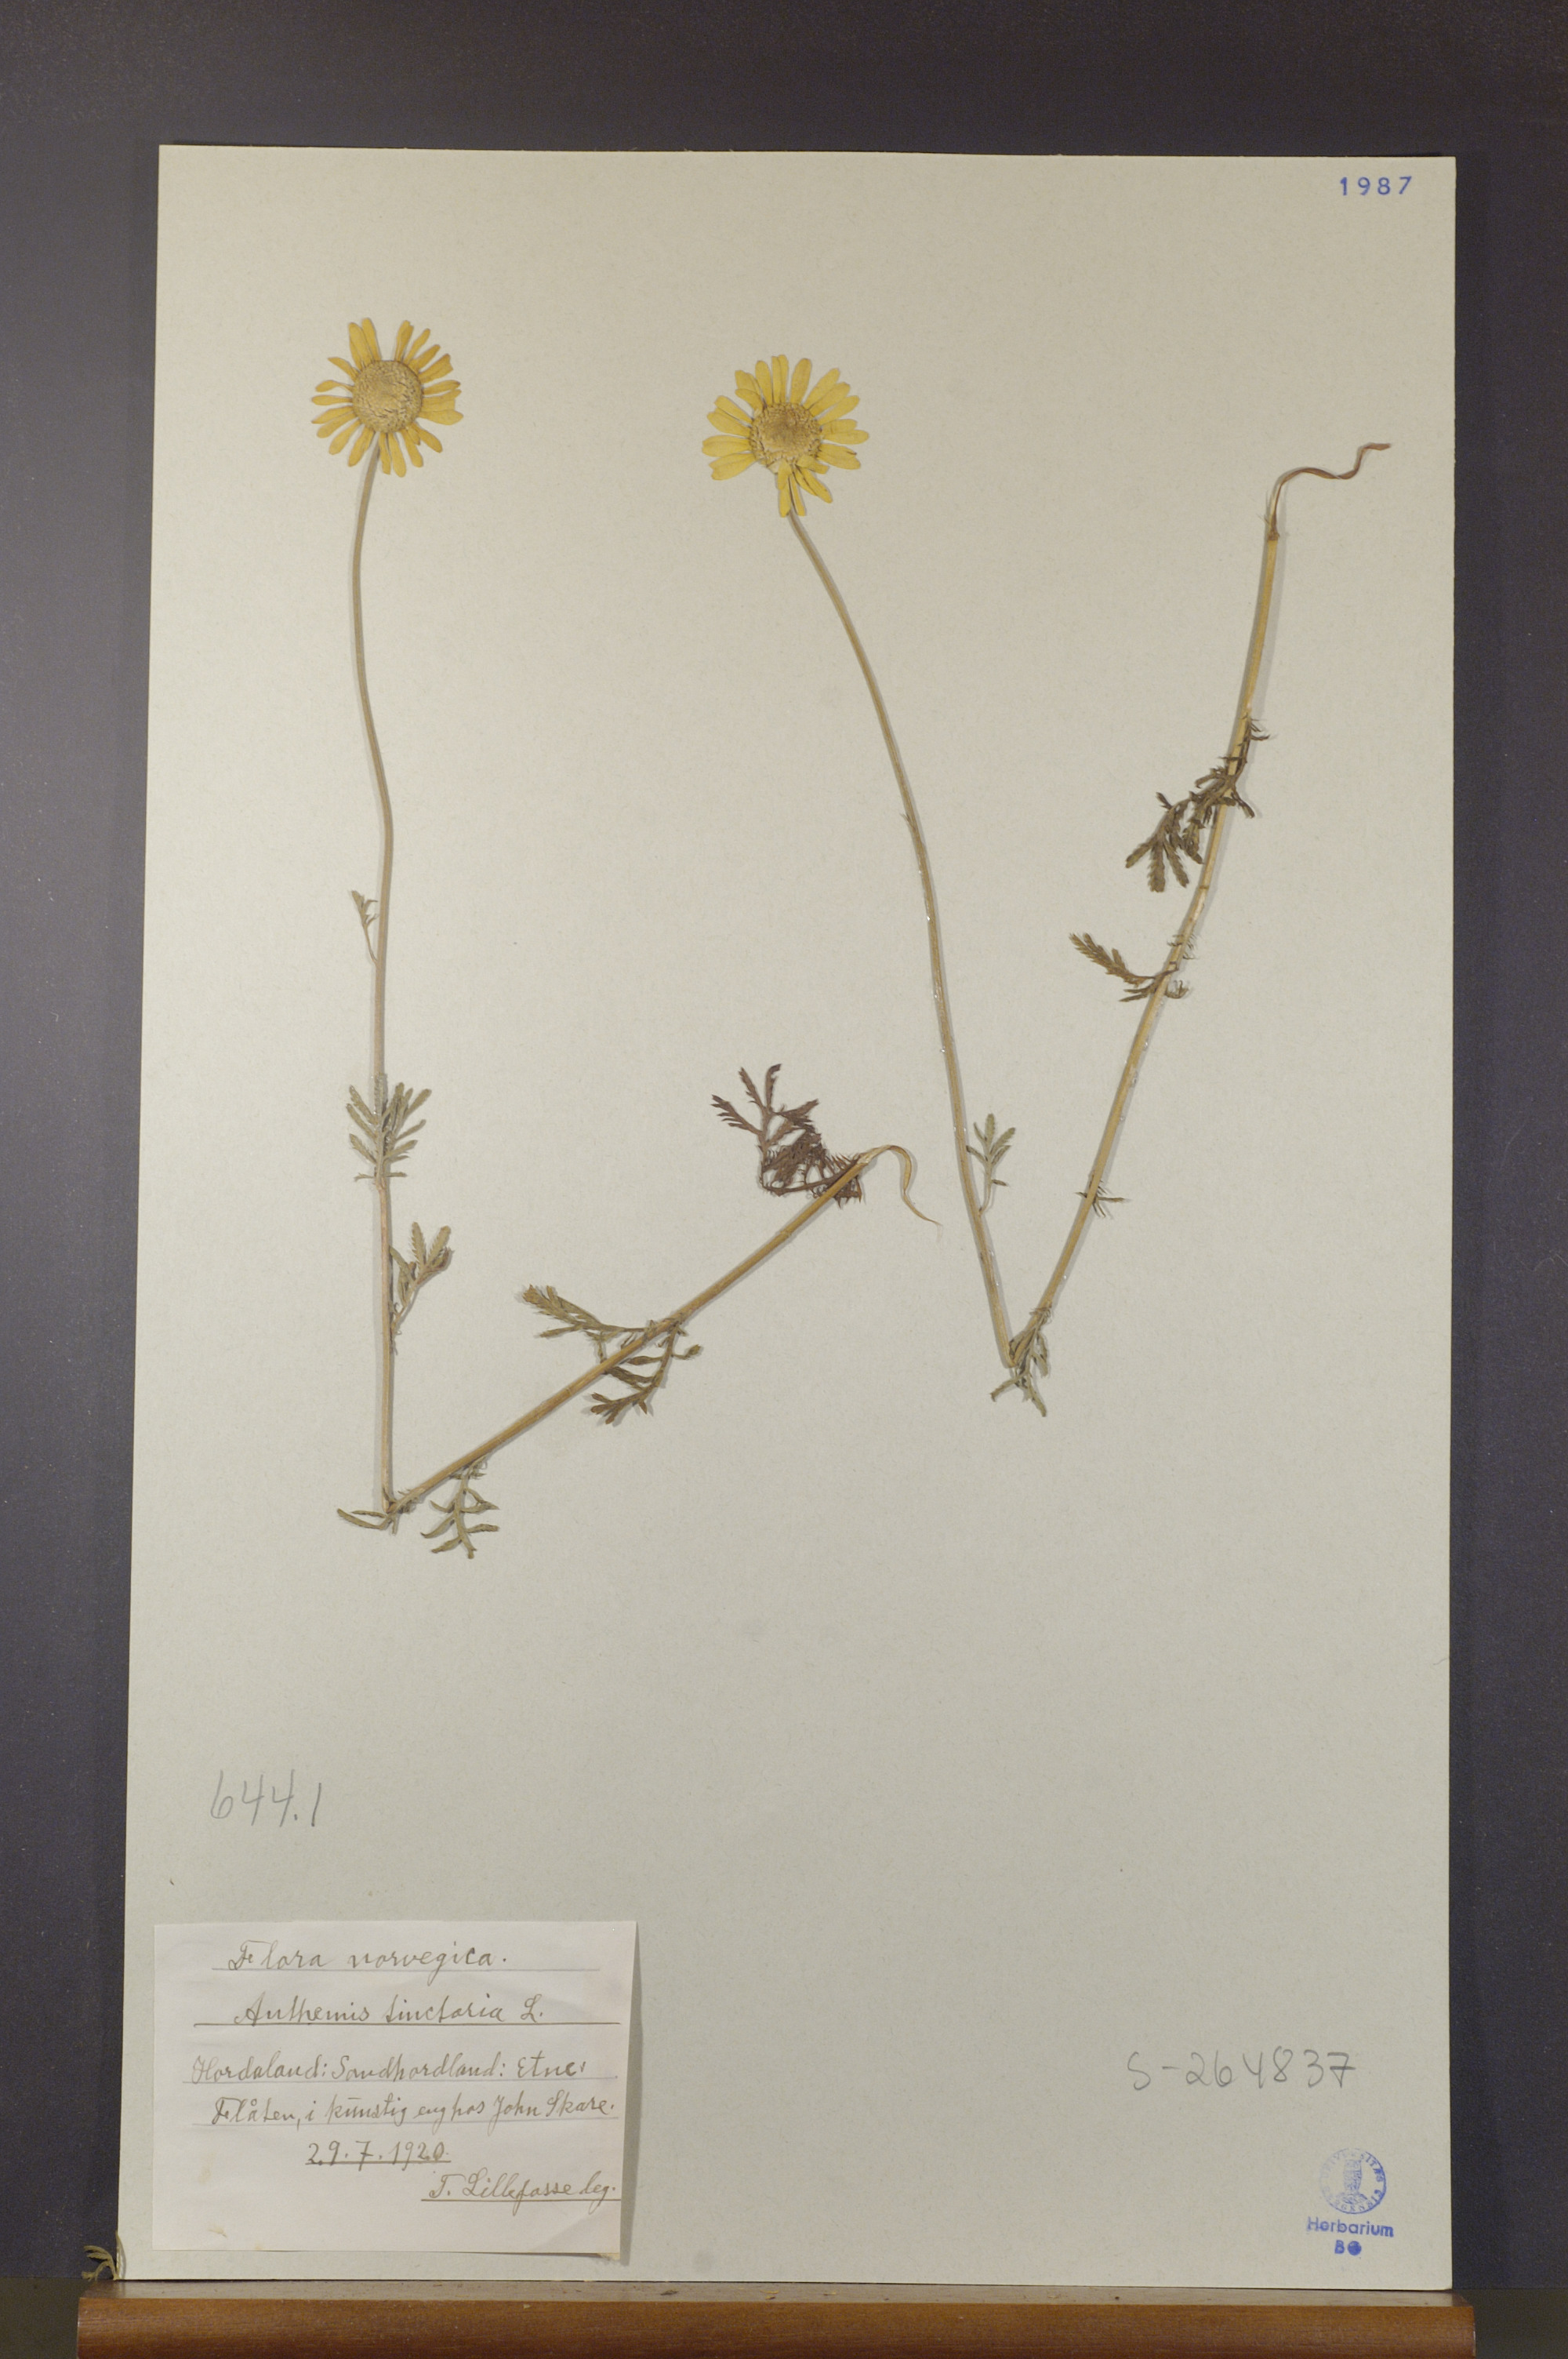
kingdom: Plantae
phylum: Tracheophyta
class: Magnoliopsida
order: Asterales
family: Asteraceae
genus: Cota
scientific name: Cota tinctoria
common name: Golden chamomile
